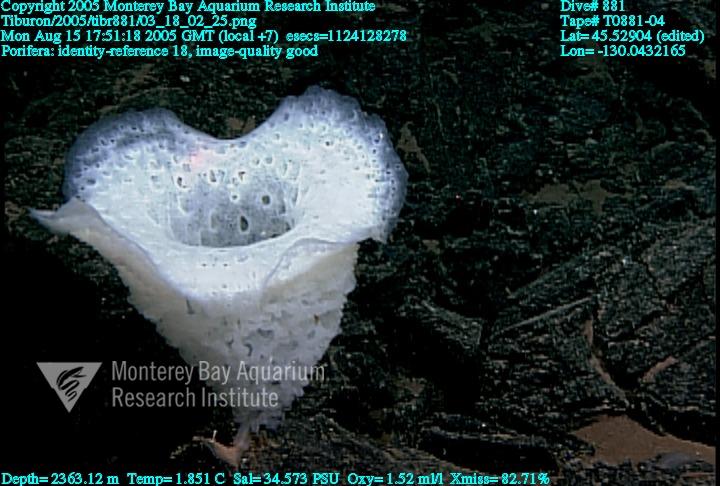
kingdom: Animalia
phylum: Porifera
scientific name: Porifera
